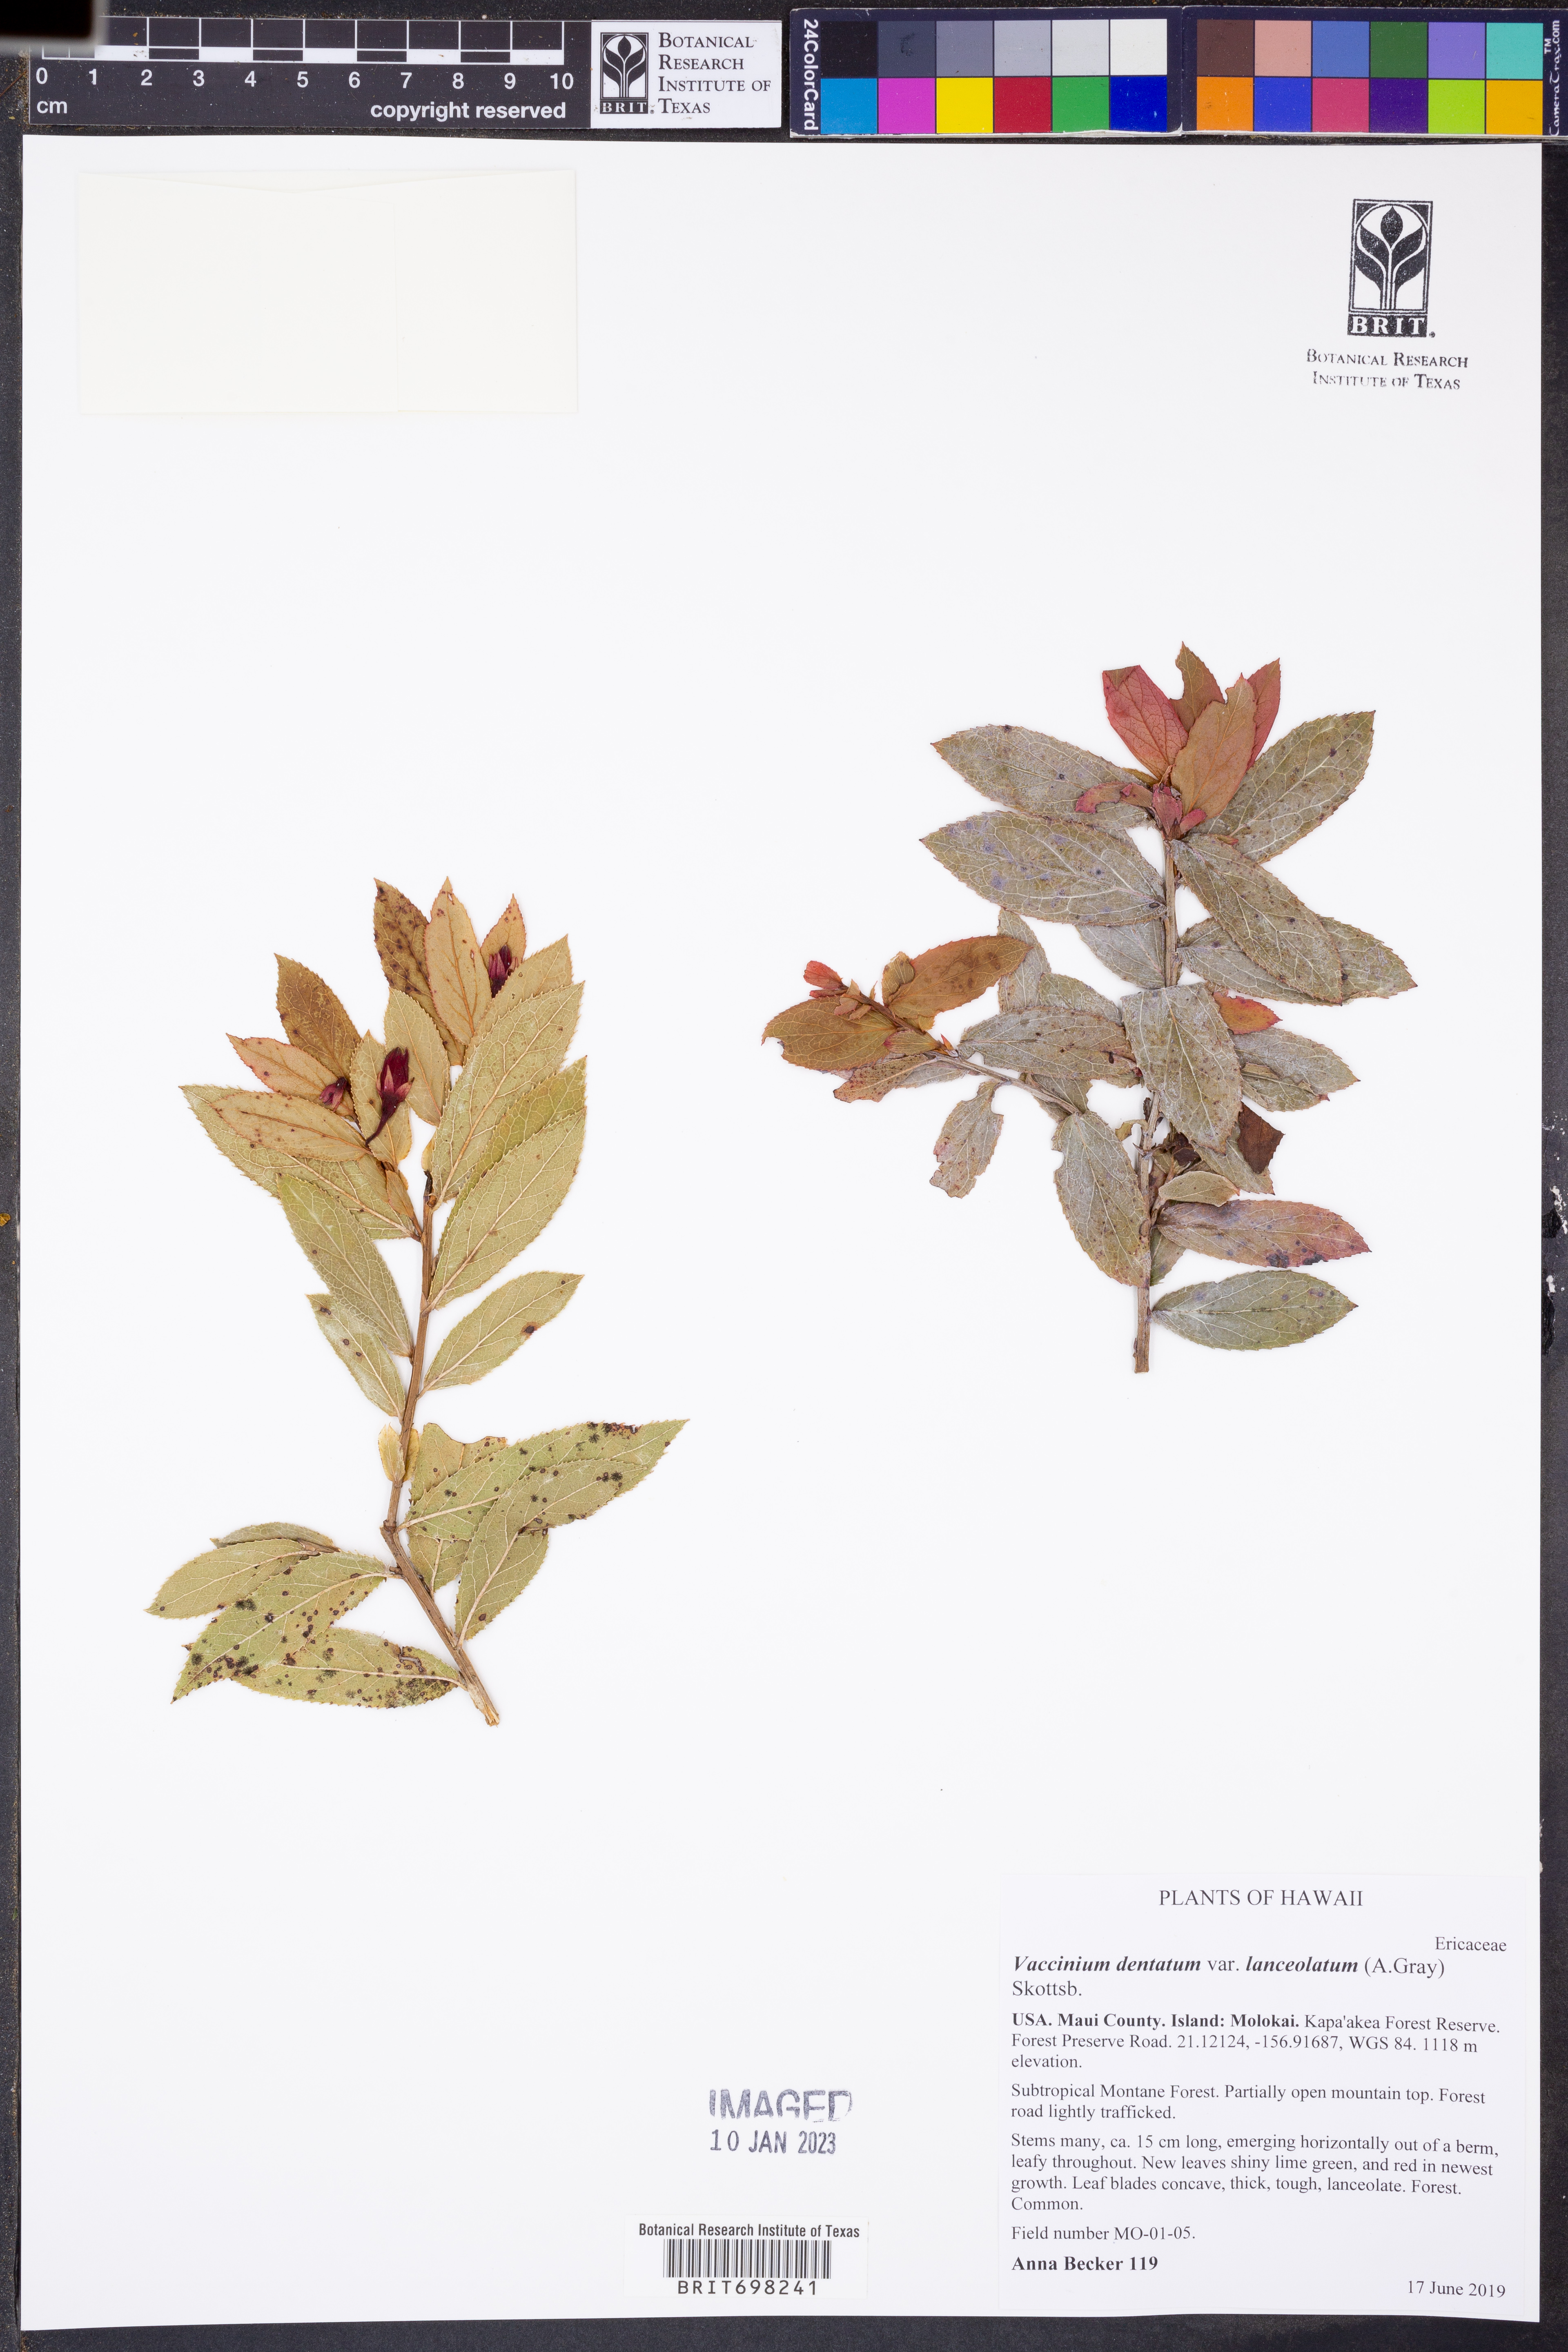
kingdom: Plantae
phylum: Tracheophyta
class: Magnoliopsida
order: Ericales
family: Ericaceae
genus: Vaccinium
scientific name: Vaccinium dentatum
